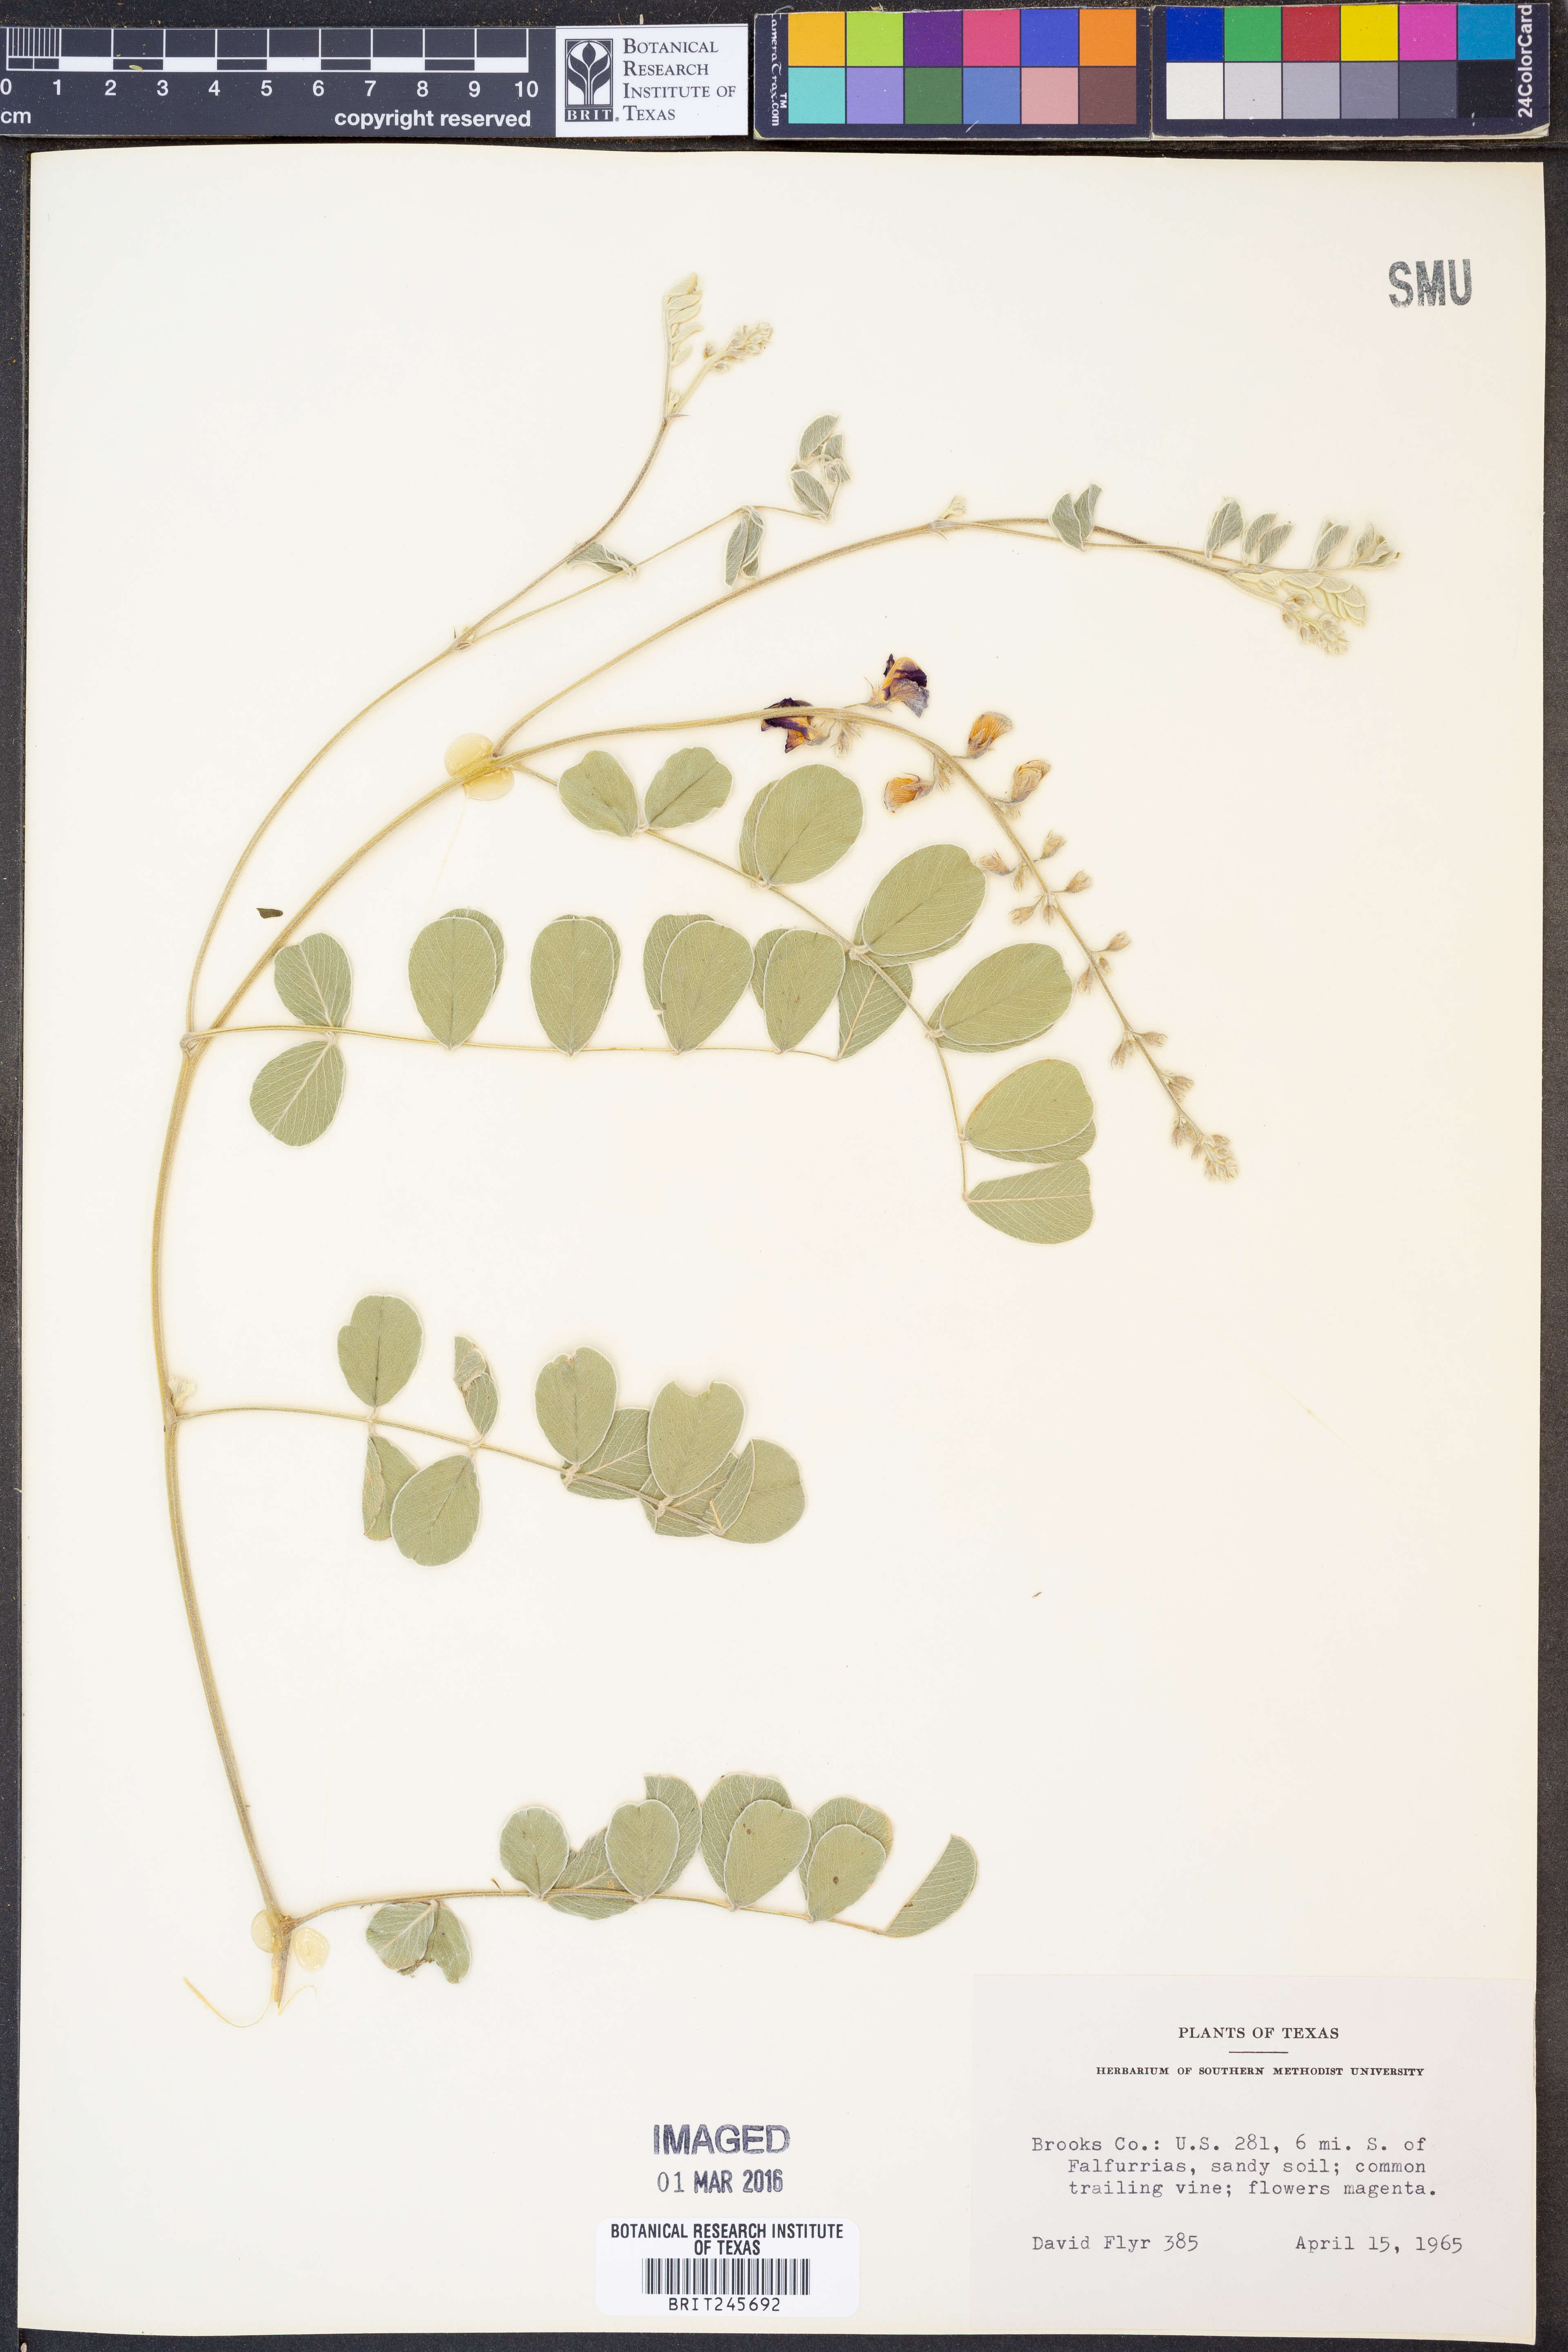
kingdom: Plantae
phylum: Tracheophyta
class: Magnoliopsida
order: Fabales
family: Fabaceae
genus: Tephrosia
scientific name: Tephrosia lindheimeri
